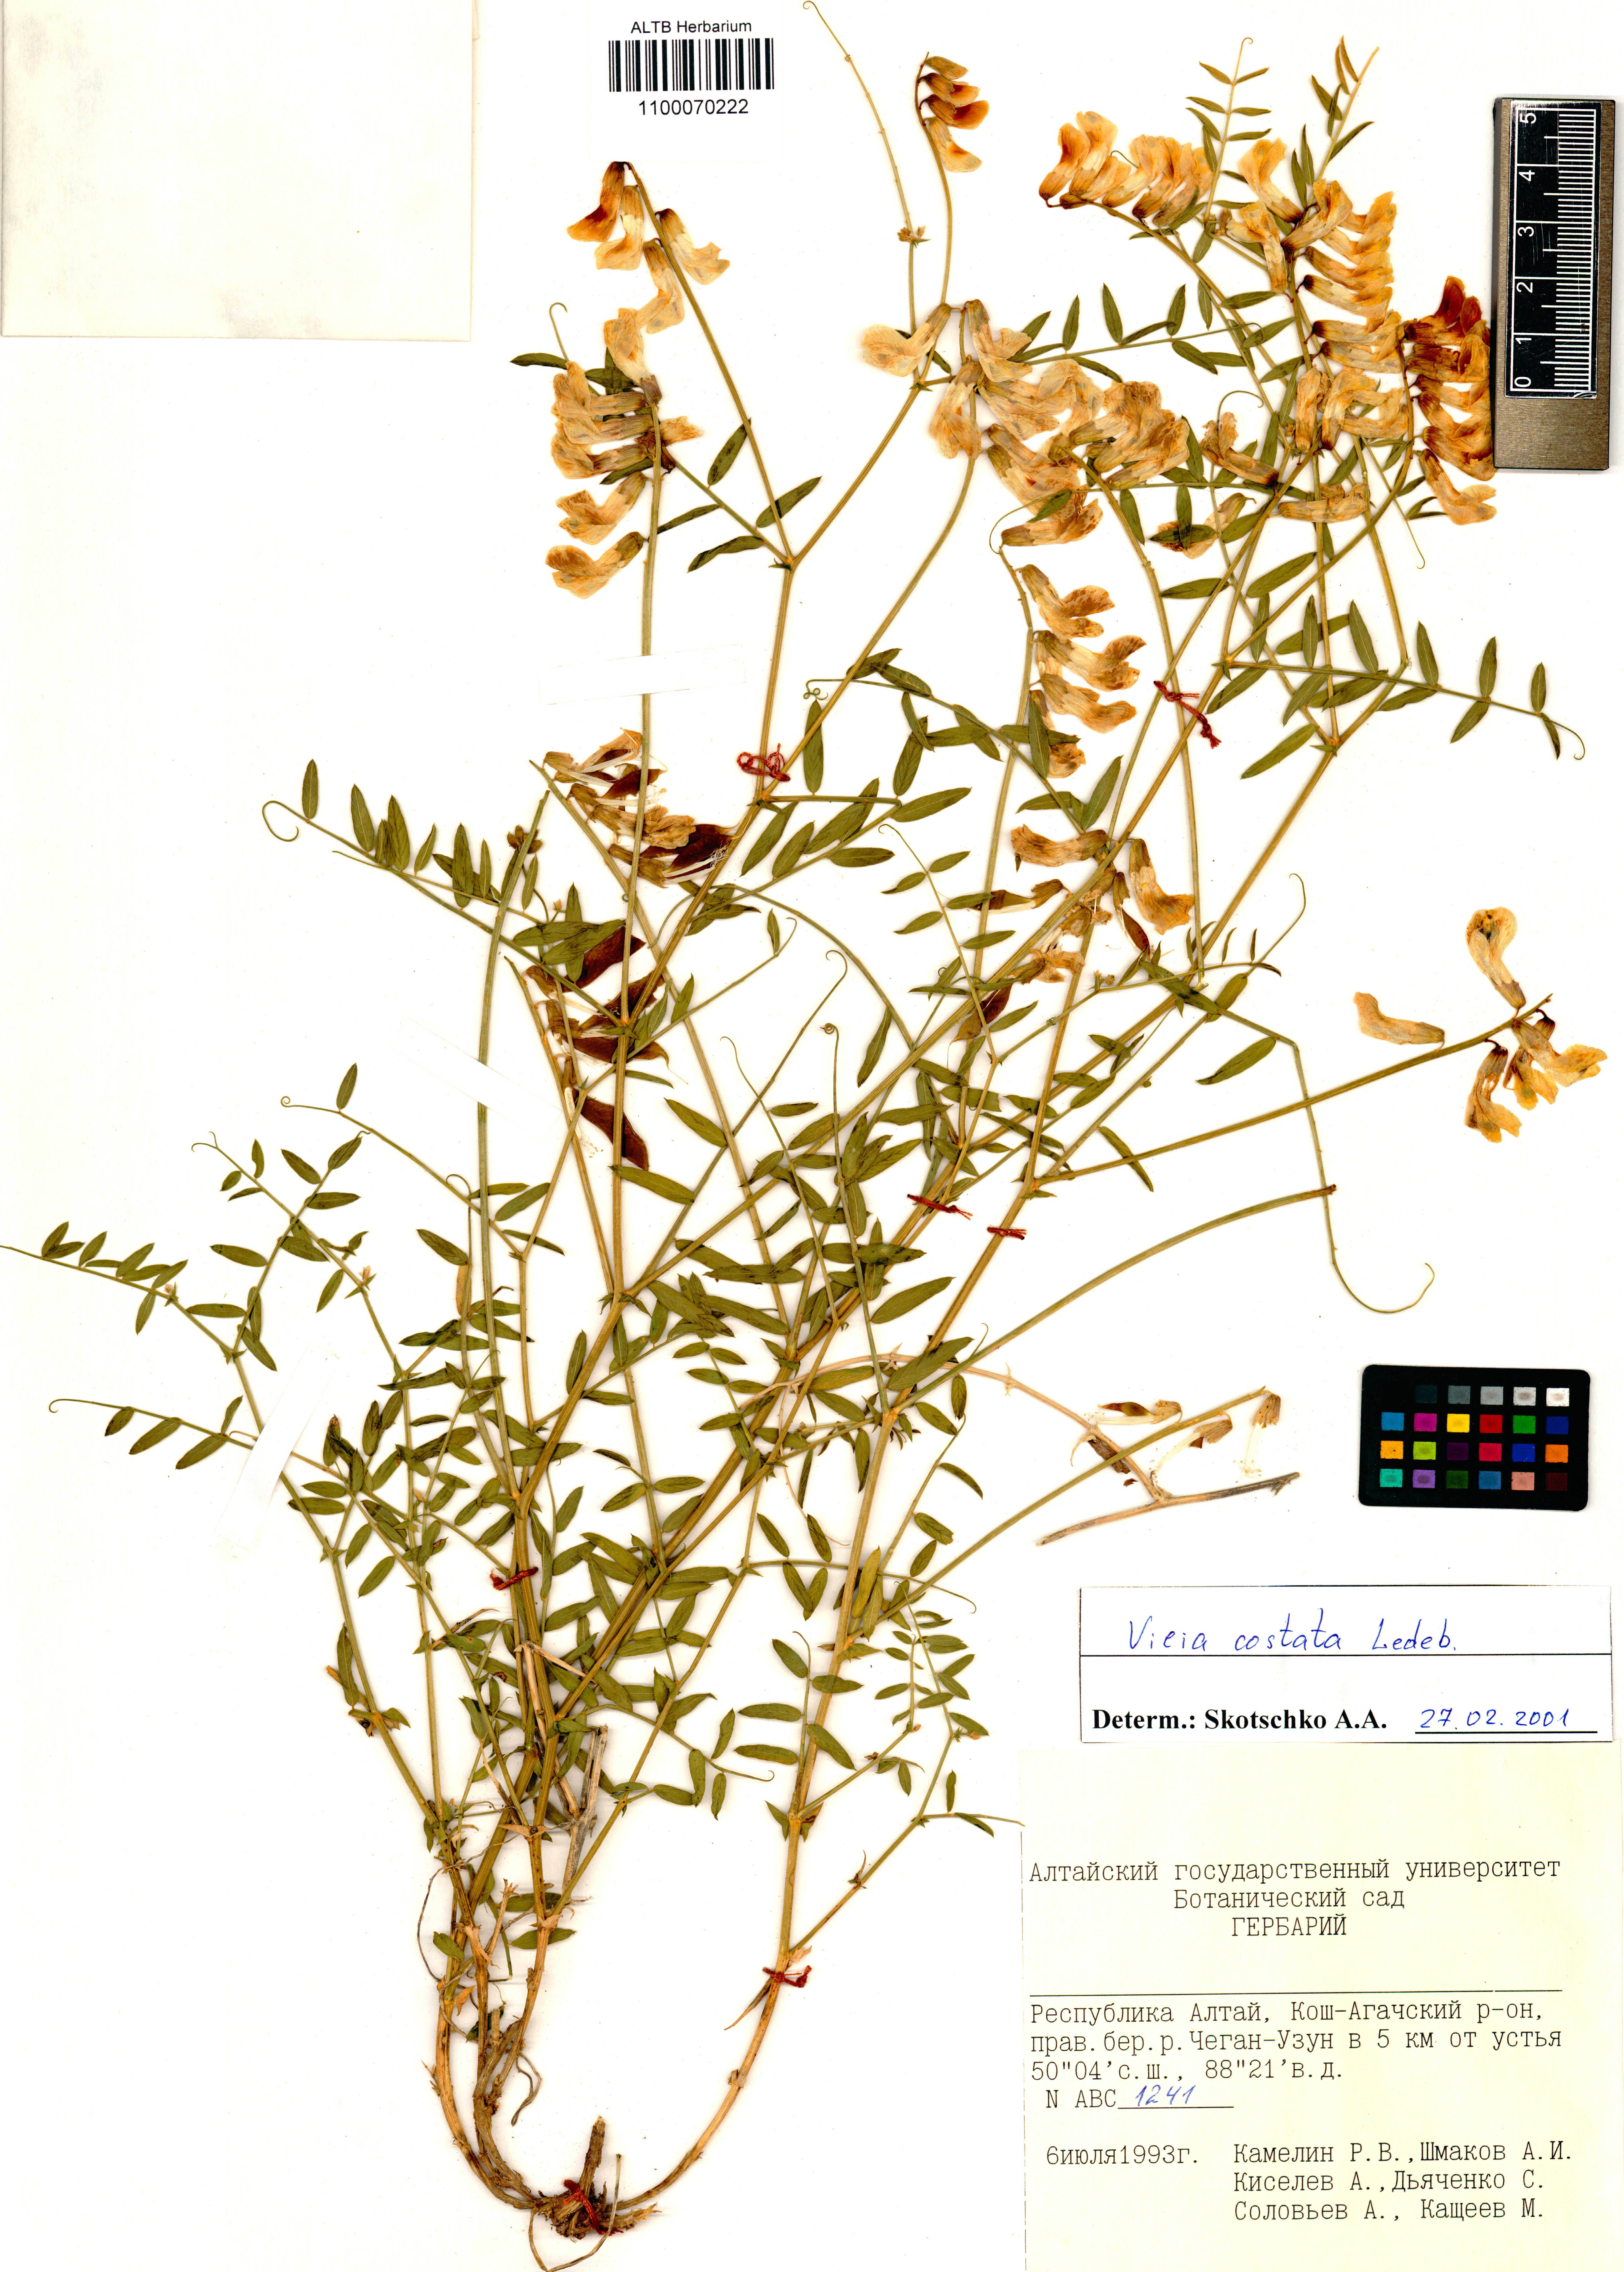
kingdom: Plantae
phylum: Tracheophyta
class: Magnoliopsida
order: Fabales
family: Fabaceae
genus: Vicia
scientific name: Vicia costata
